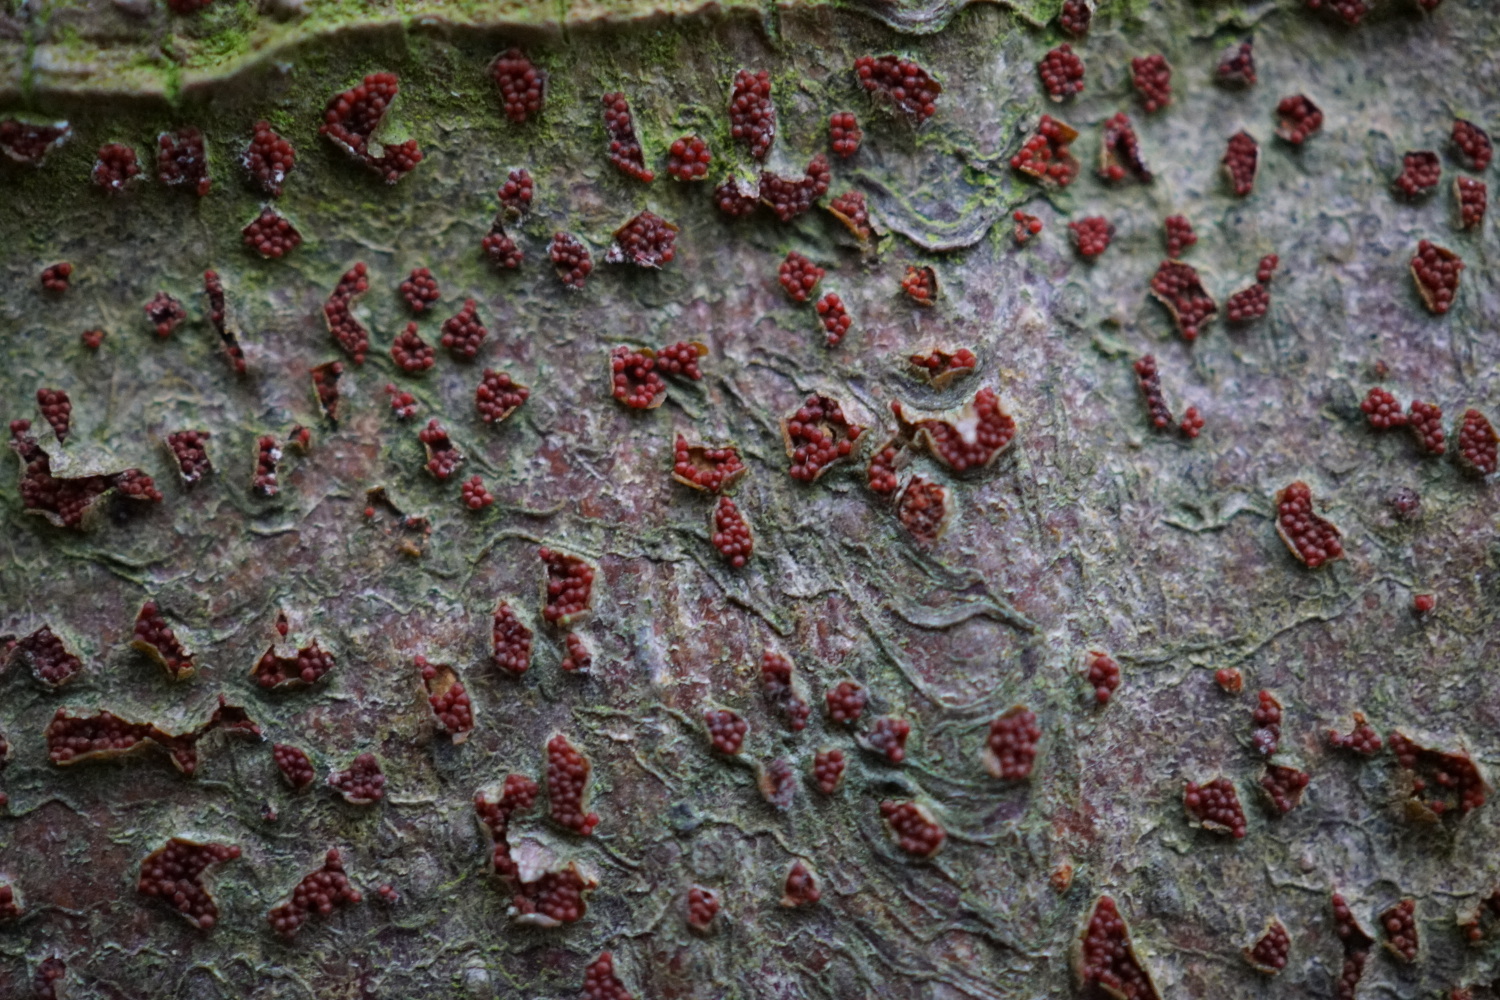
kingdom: Fungi
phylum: Ascomycota
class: Sordariomycetes
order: Hypocreales
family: Nectriaceae
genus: Neonectria
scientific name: Neonectria coccinea
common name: bøgebark-cinnobersvamp
